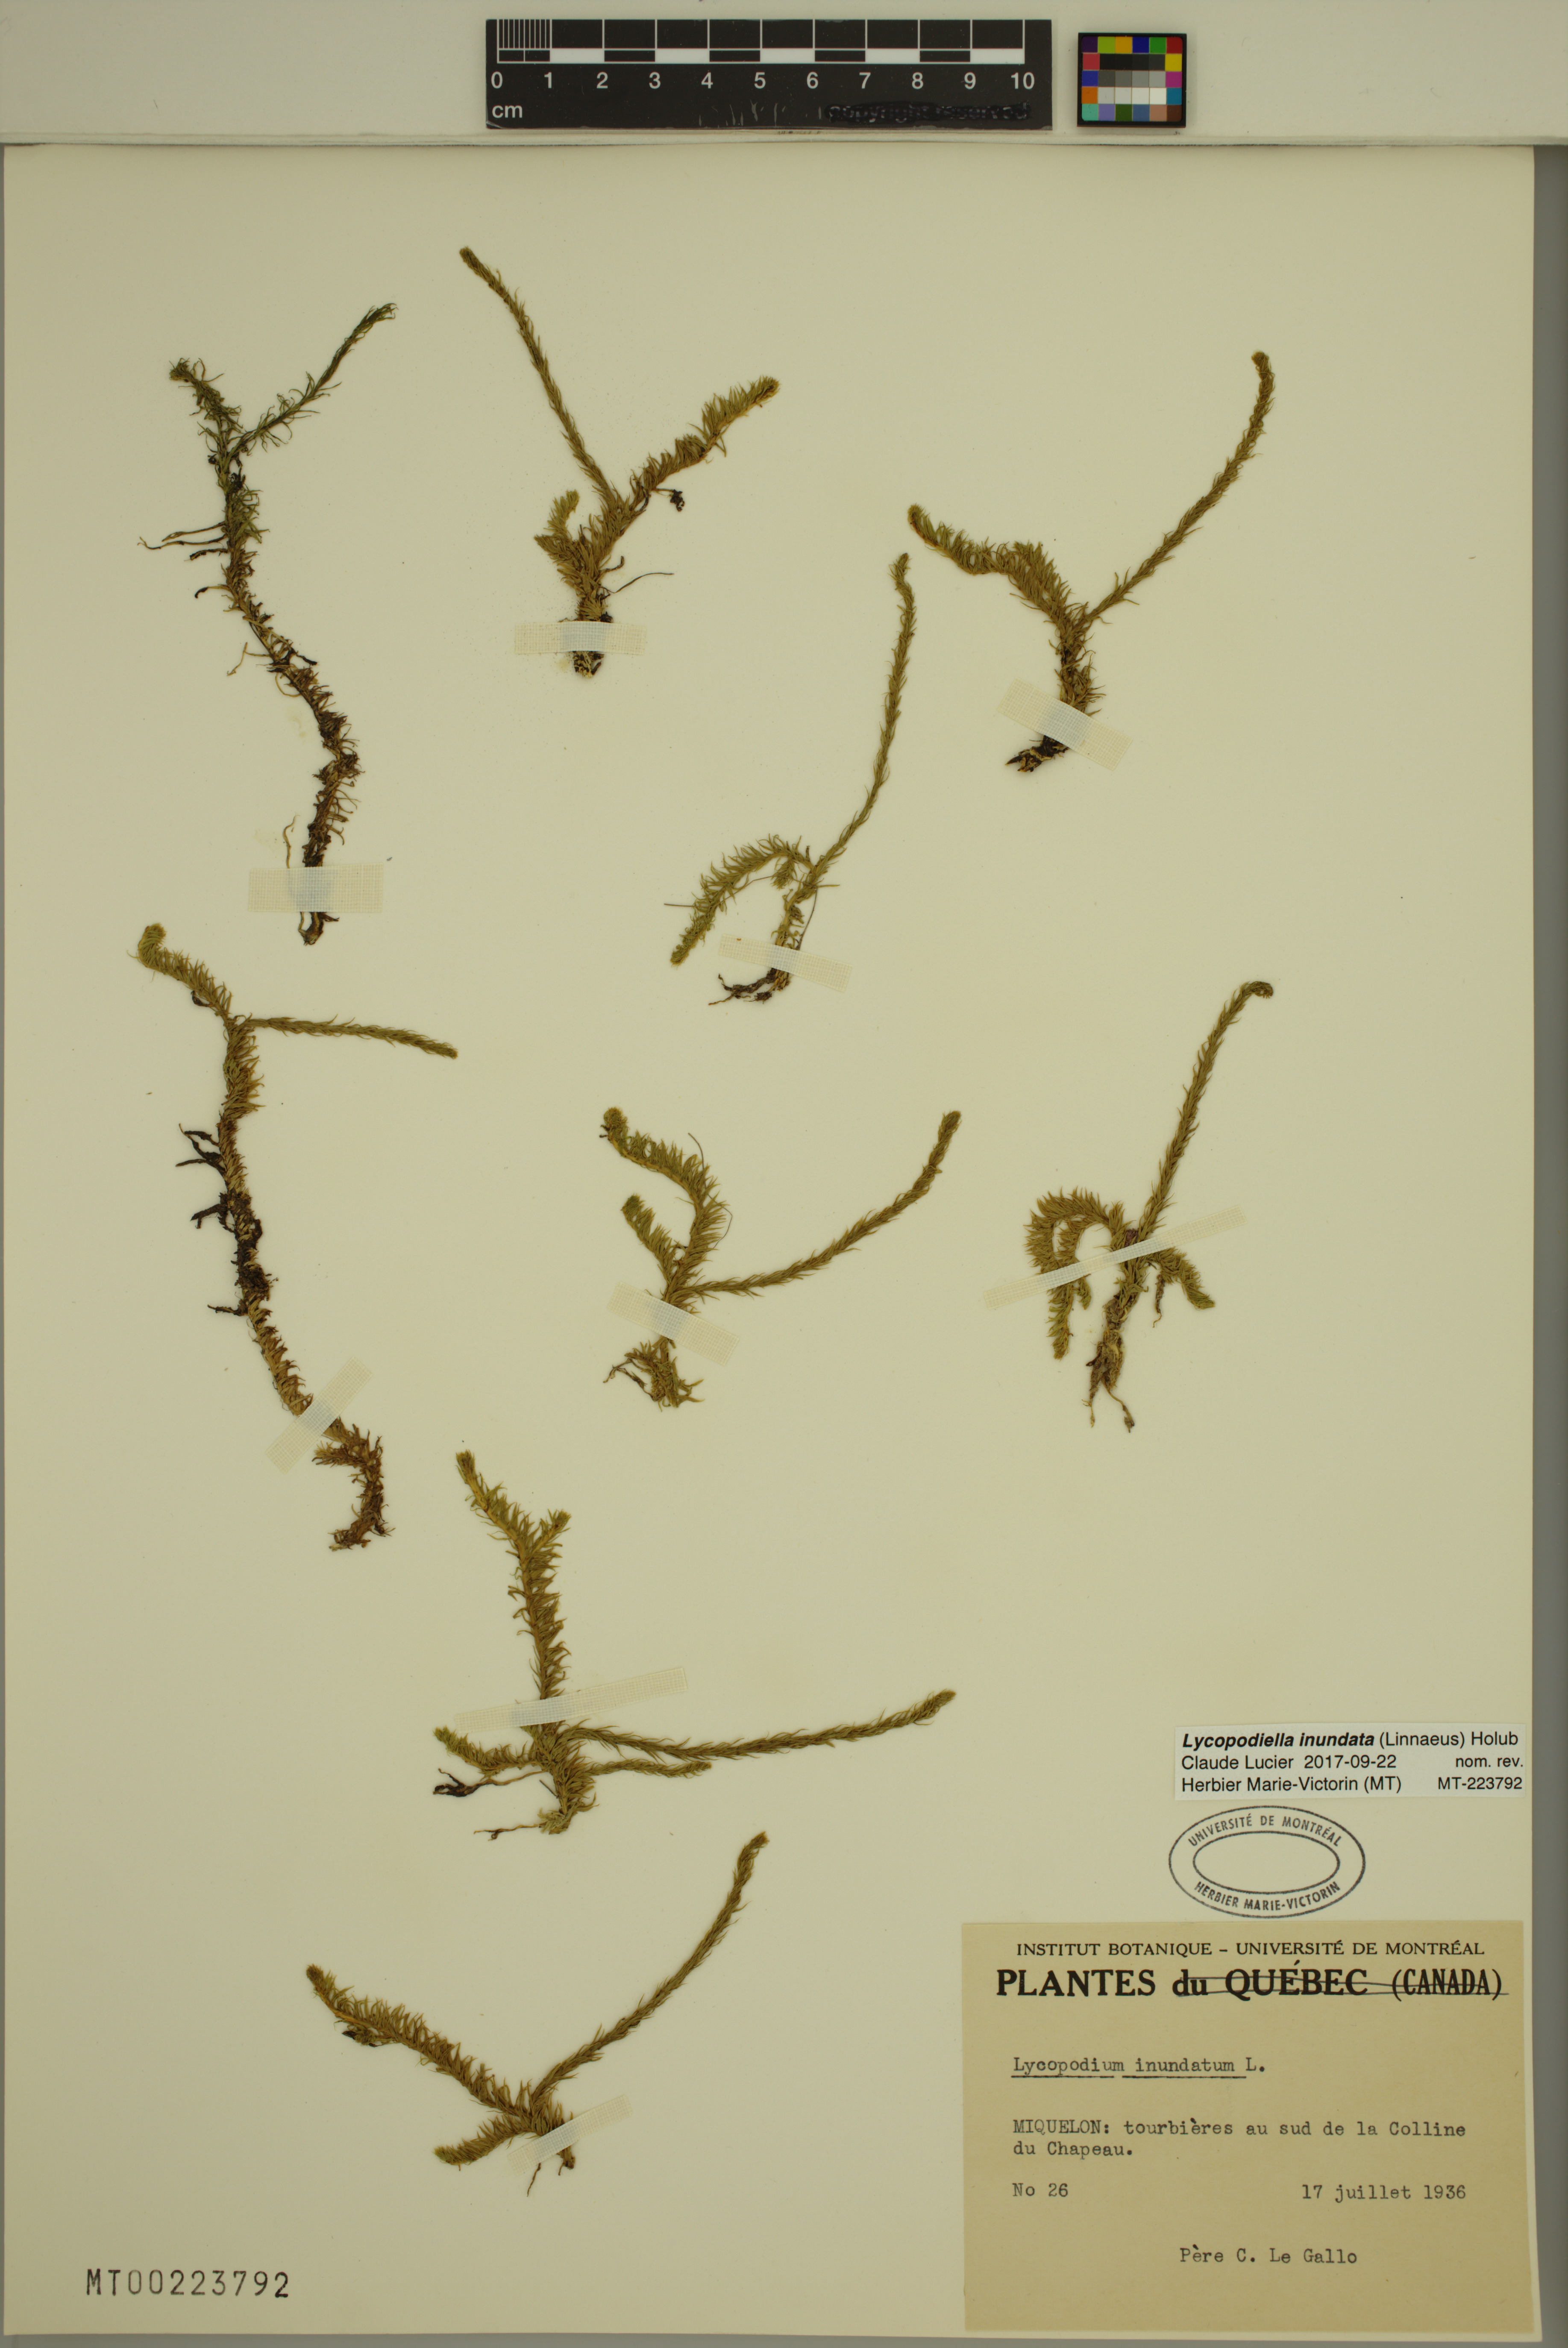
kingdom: Plantae
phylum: Tracheophyta
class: Lycopodiopsida
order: Lycopodiales
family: Lycopodiaceae
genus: Lycopodiella
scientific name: Lycopodiella inundata
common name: Marsh clubmoss
